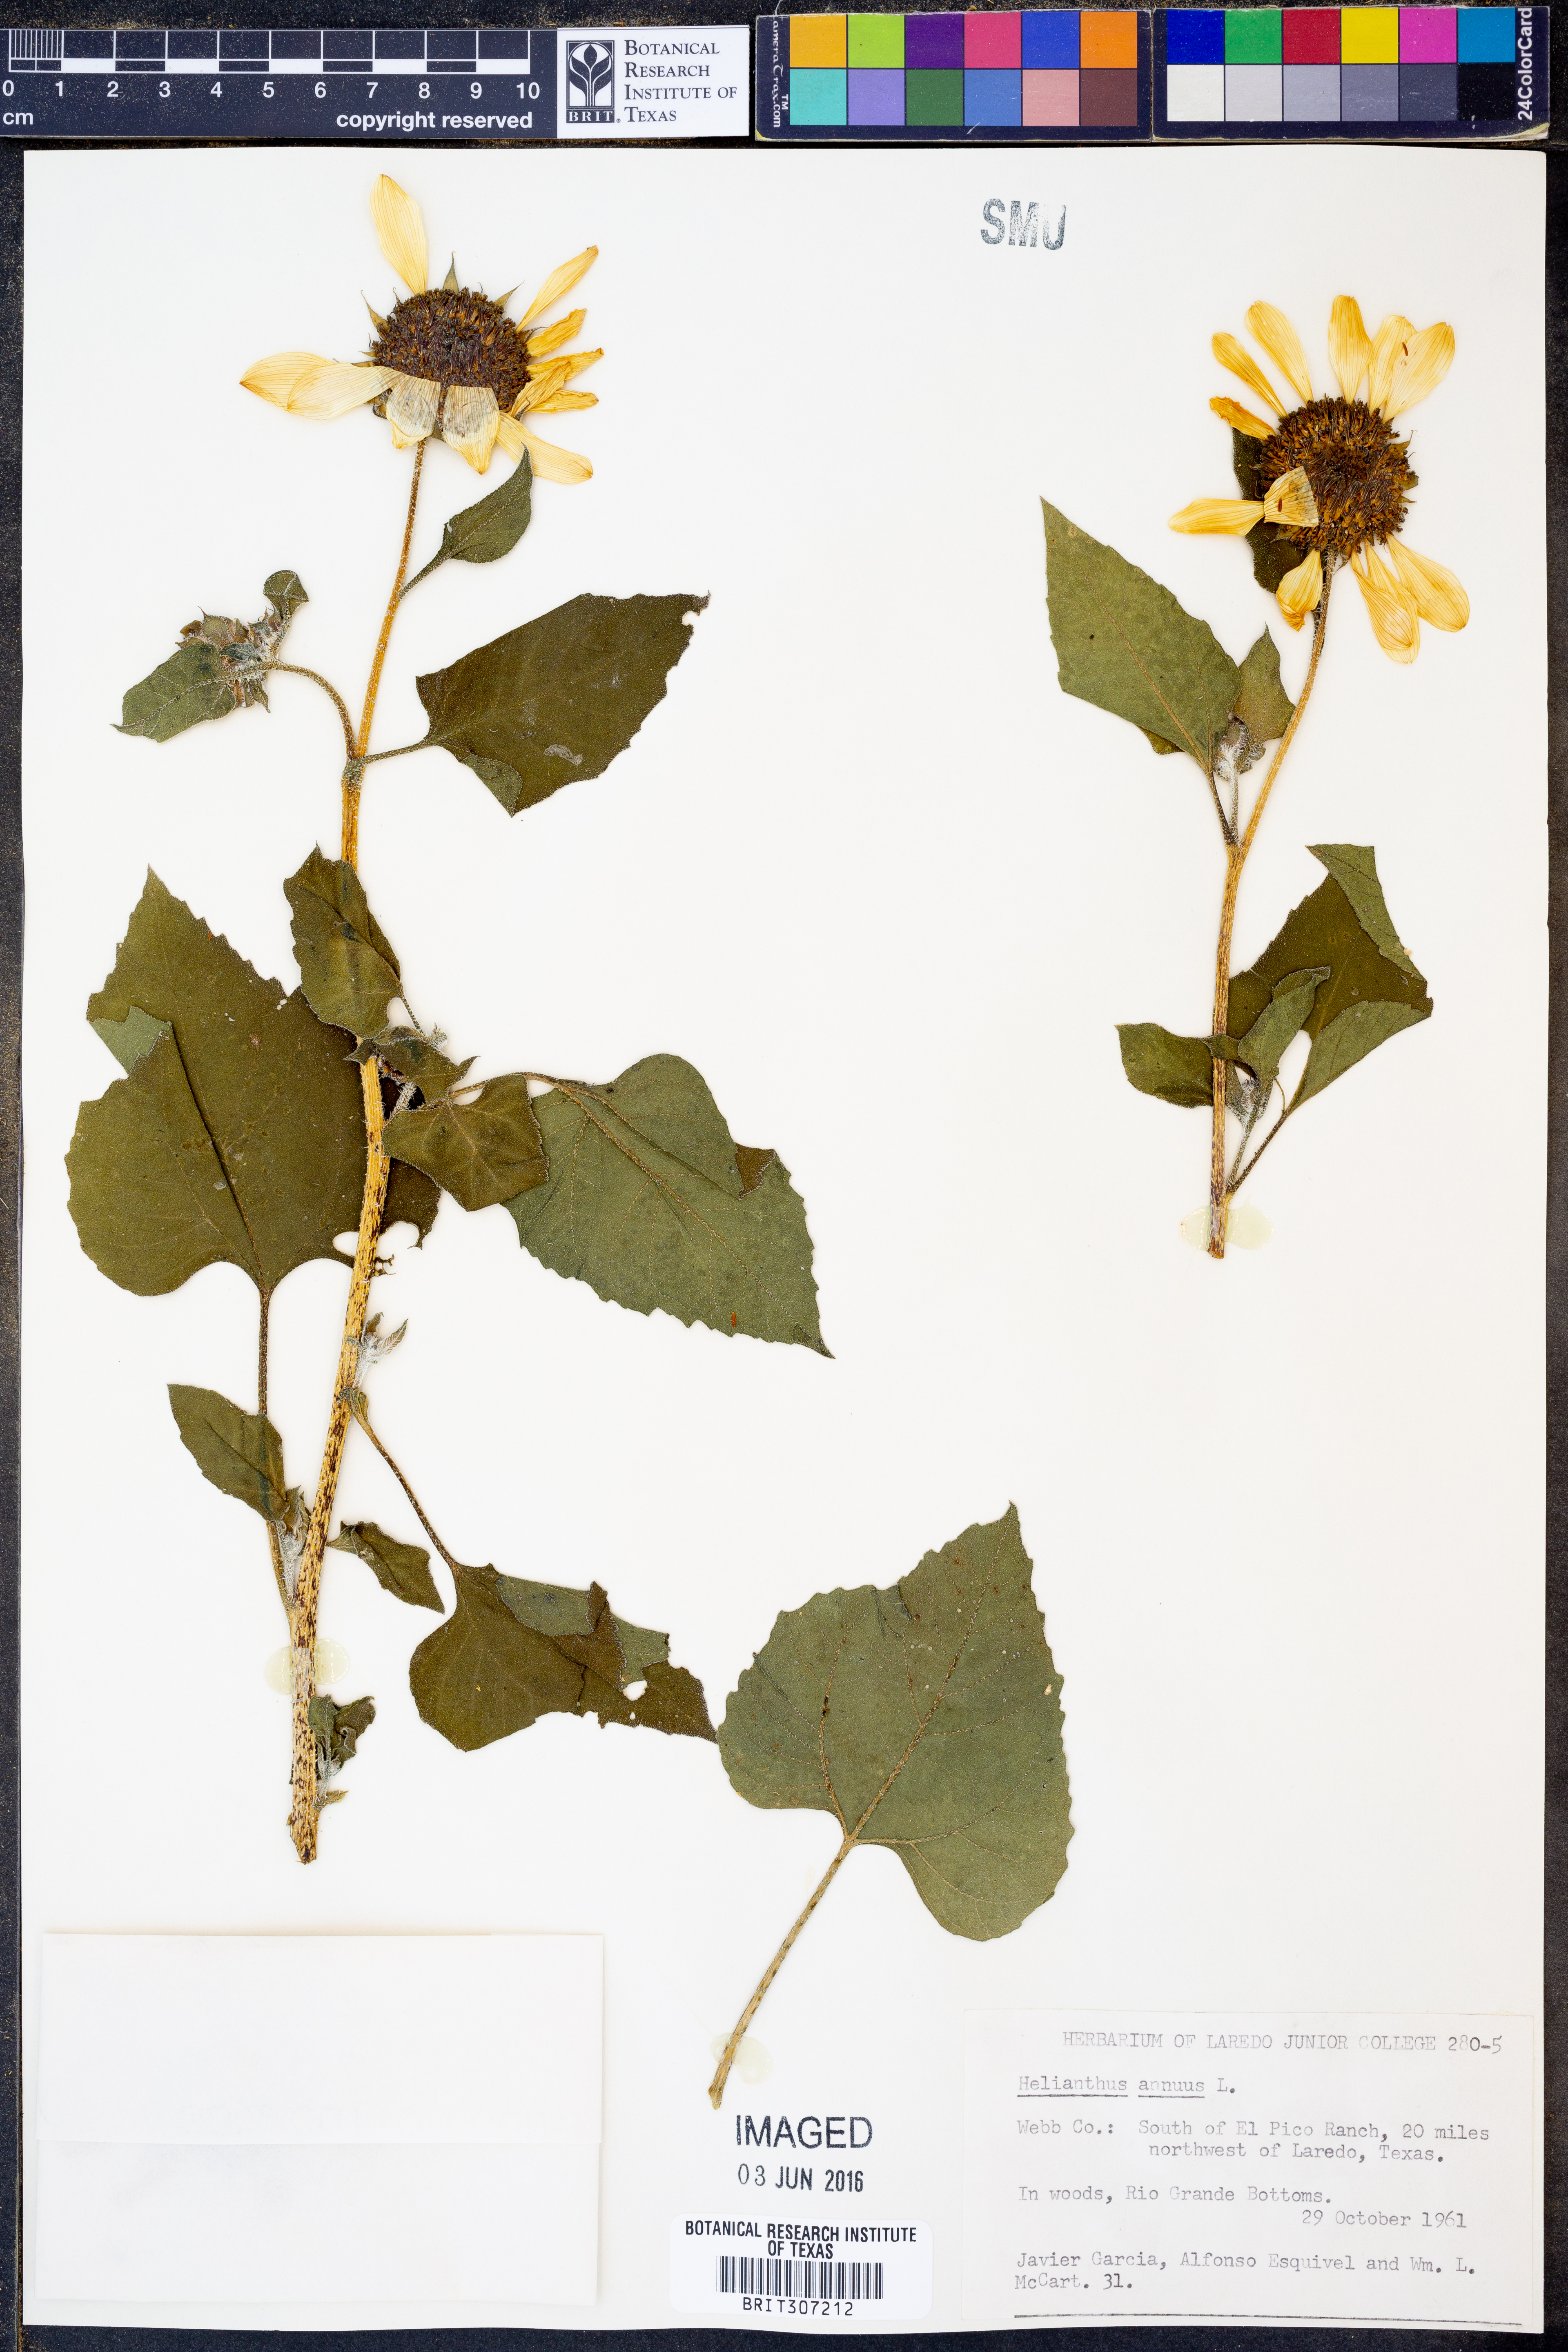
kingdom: Plantae
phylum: Tracheophyta
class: Magnoliopsida
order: Asterales
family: Asteraceae
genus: Helianthus
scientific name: Helianthus annuus
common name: Sunflower
